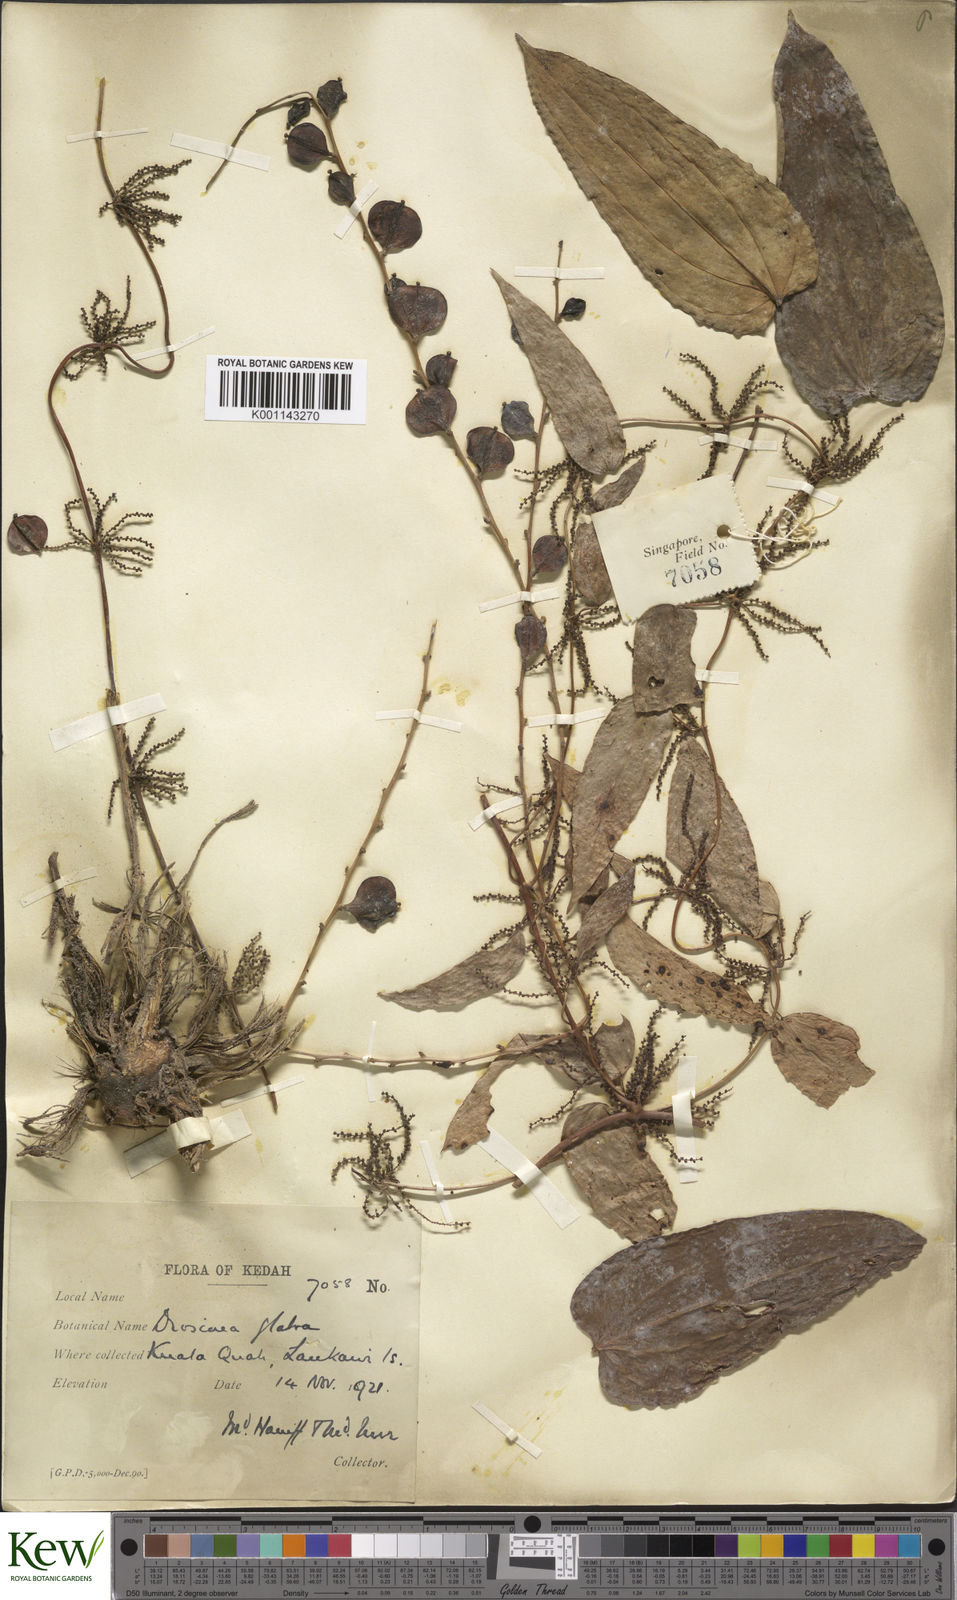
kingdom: Plantae
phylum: Tracheophyta
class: Liliopsida
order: Dioscoreales
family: Dioscoreaceae
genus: Dioscorea
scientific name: Dioscorea glabra
